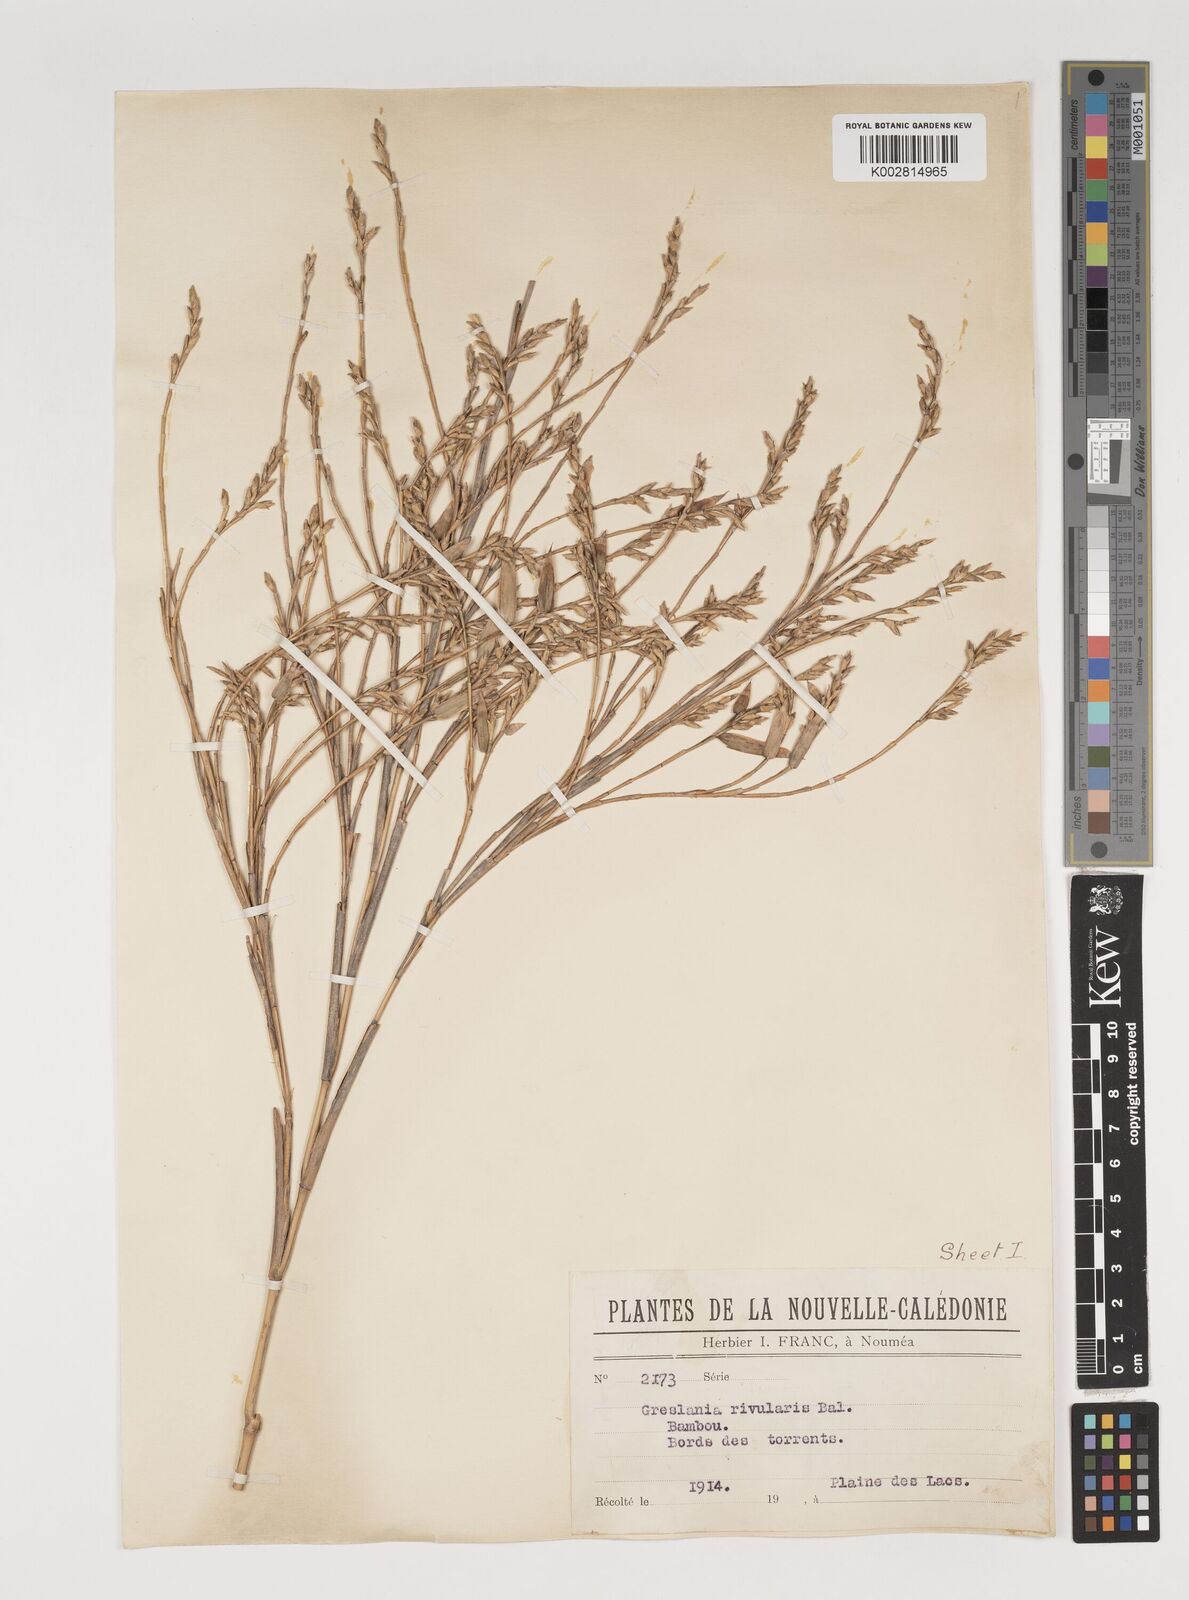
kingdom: Plantae
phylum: Tracheophyta
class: Liliopsida
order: Poales
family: Poaceae
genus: Greslania
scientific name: Greslania rivularis
